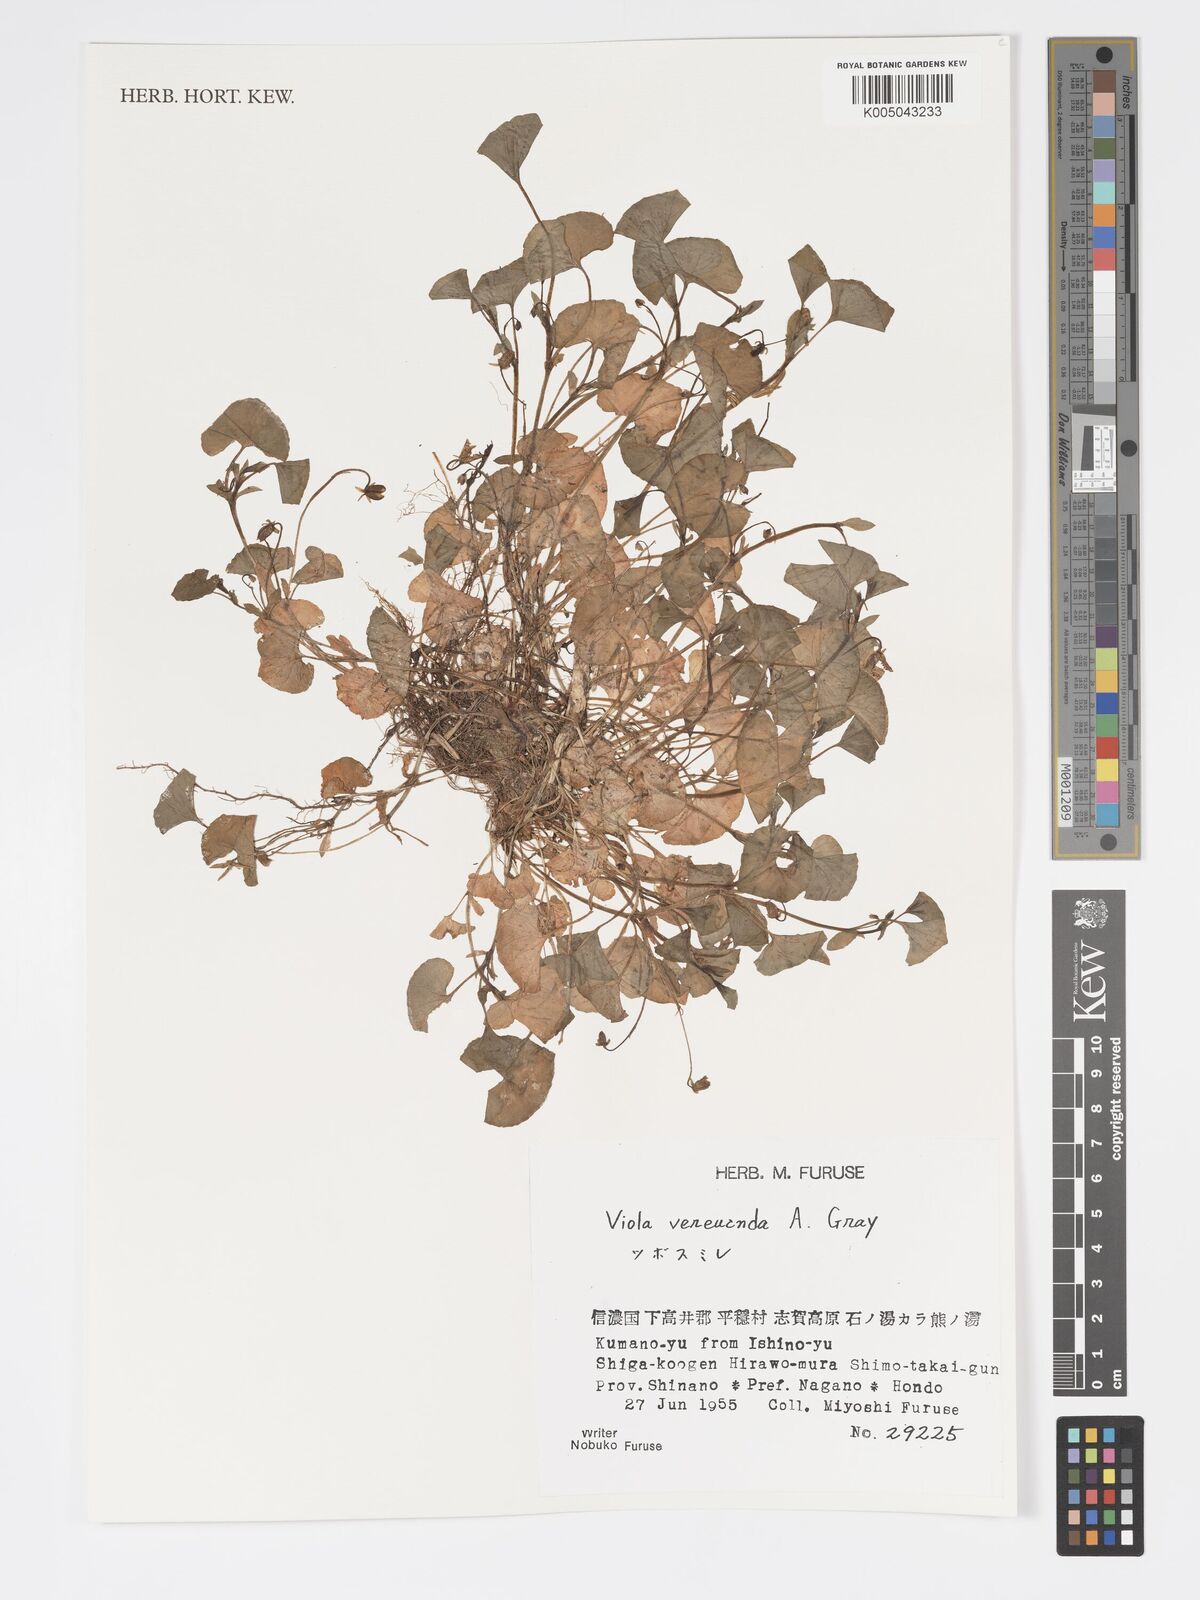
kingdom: Plantae
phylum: Tracheophyta
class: Magnoliopsida
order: Malpighiales
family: Violaceae
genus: Viola
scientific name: Viola hamiltoniana
